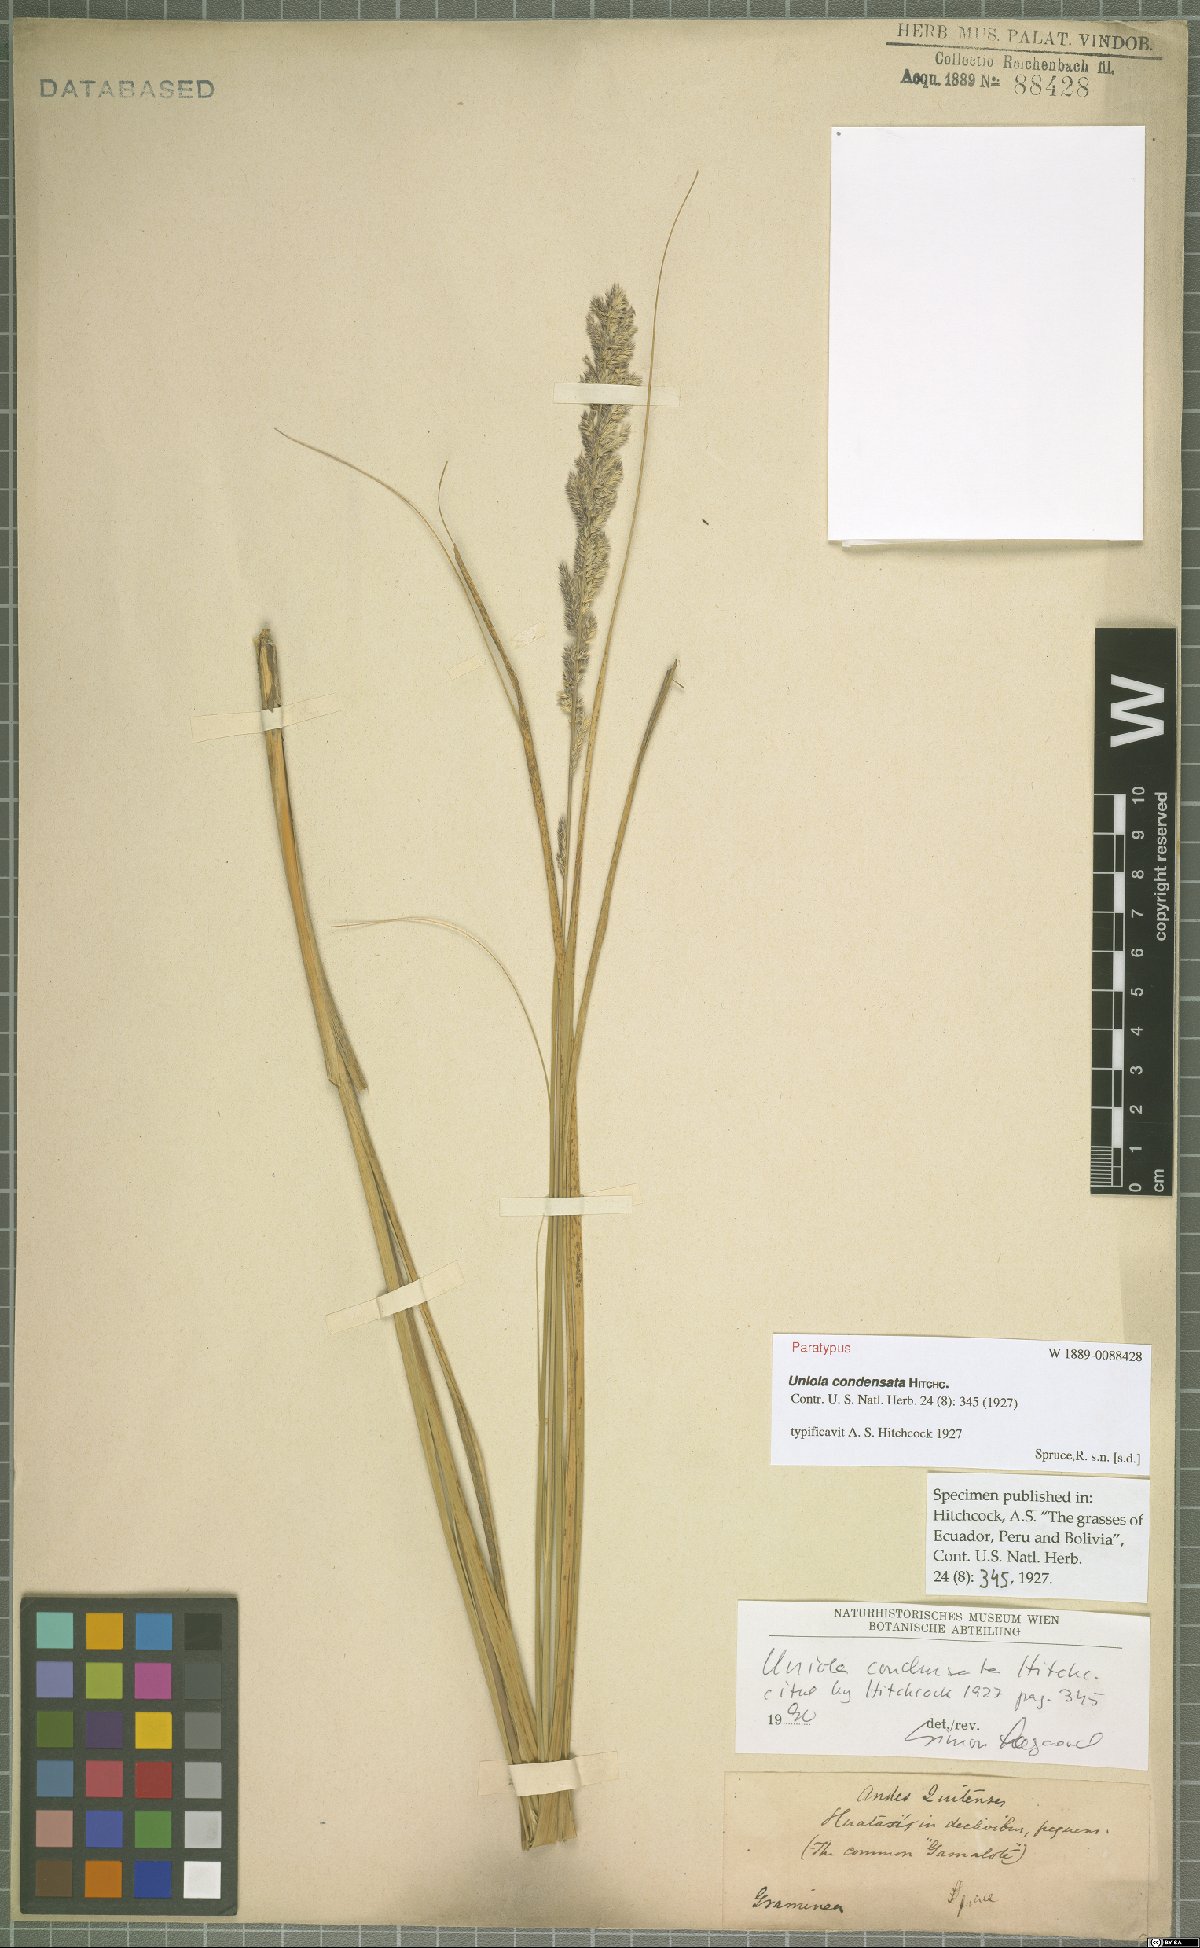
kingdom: Plantae
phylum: Tracheophyta
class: Liliopsida
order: Poales
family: Poaceae
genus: Uniola
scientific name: Uniola condensata
